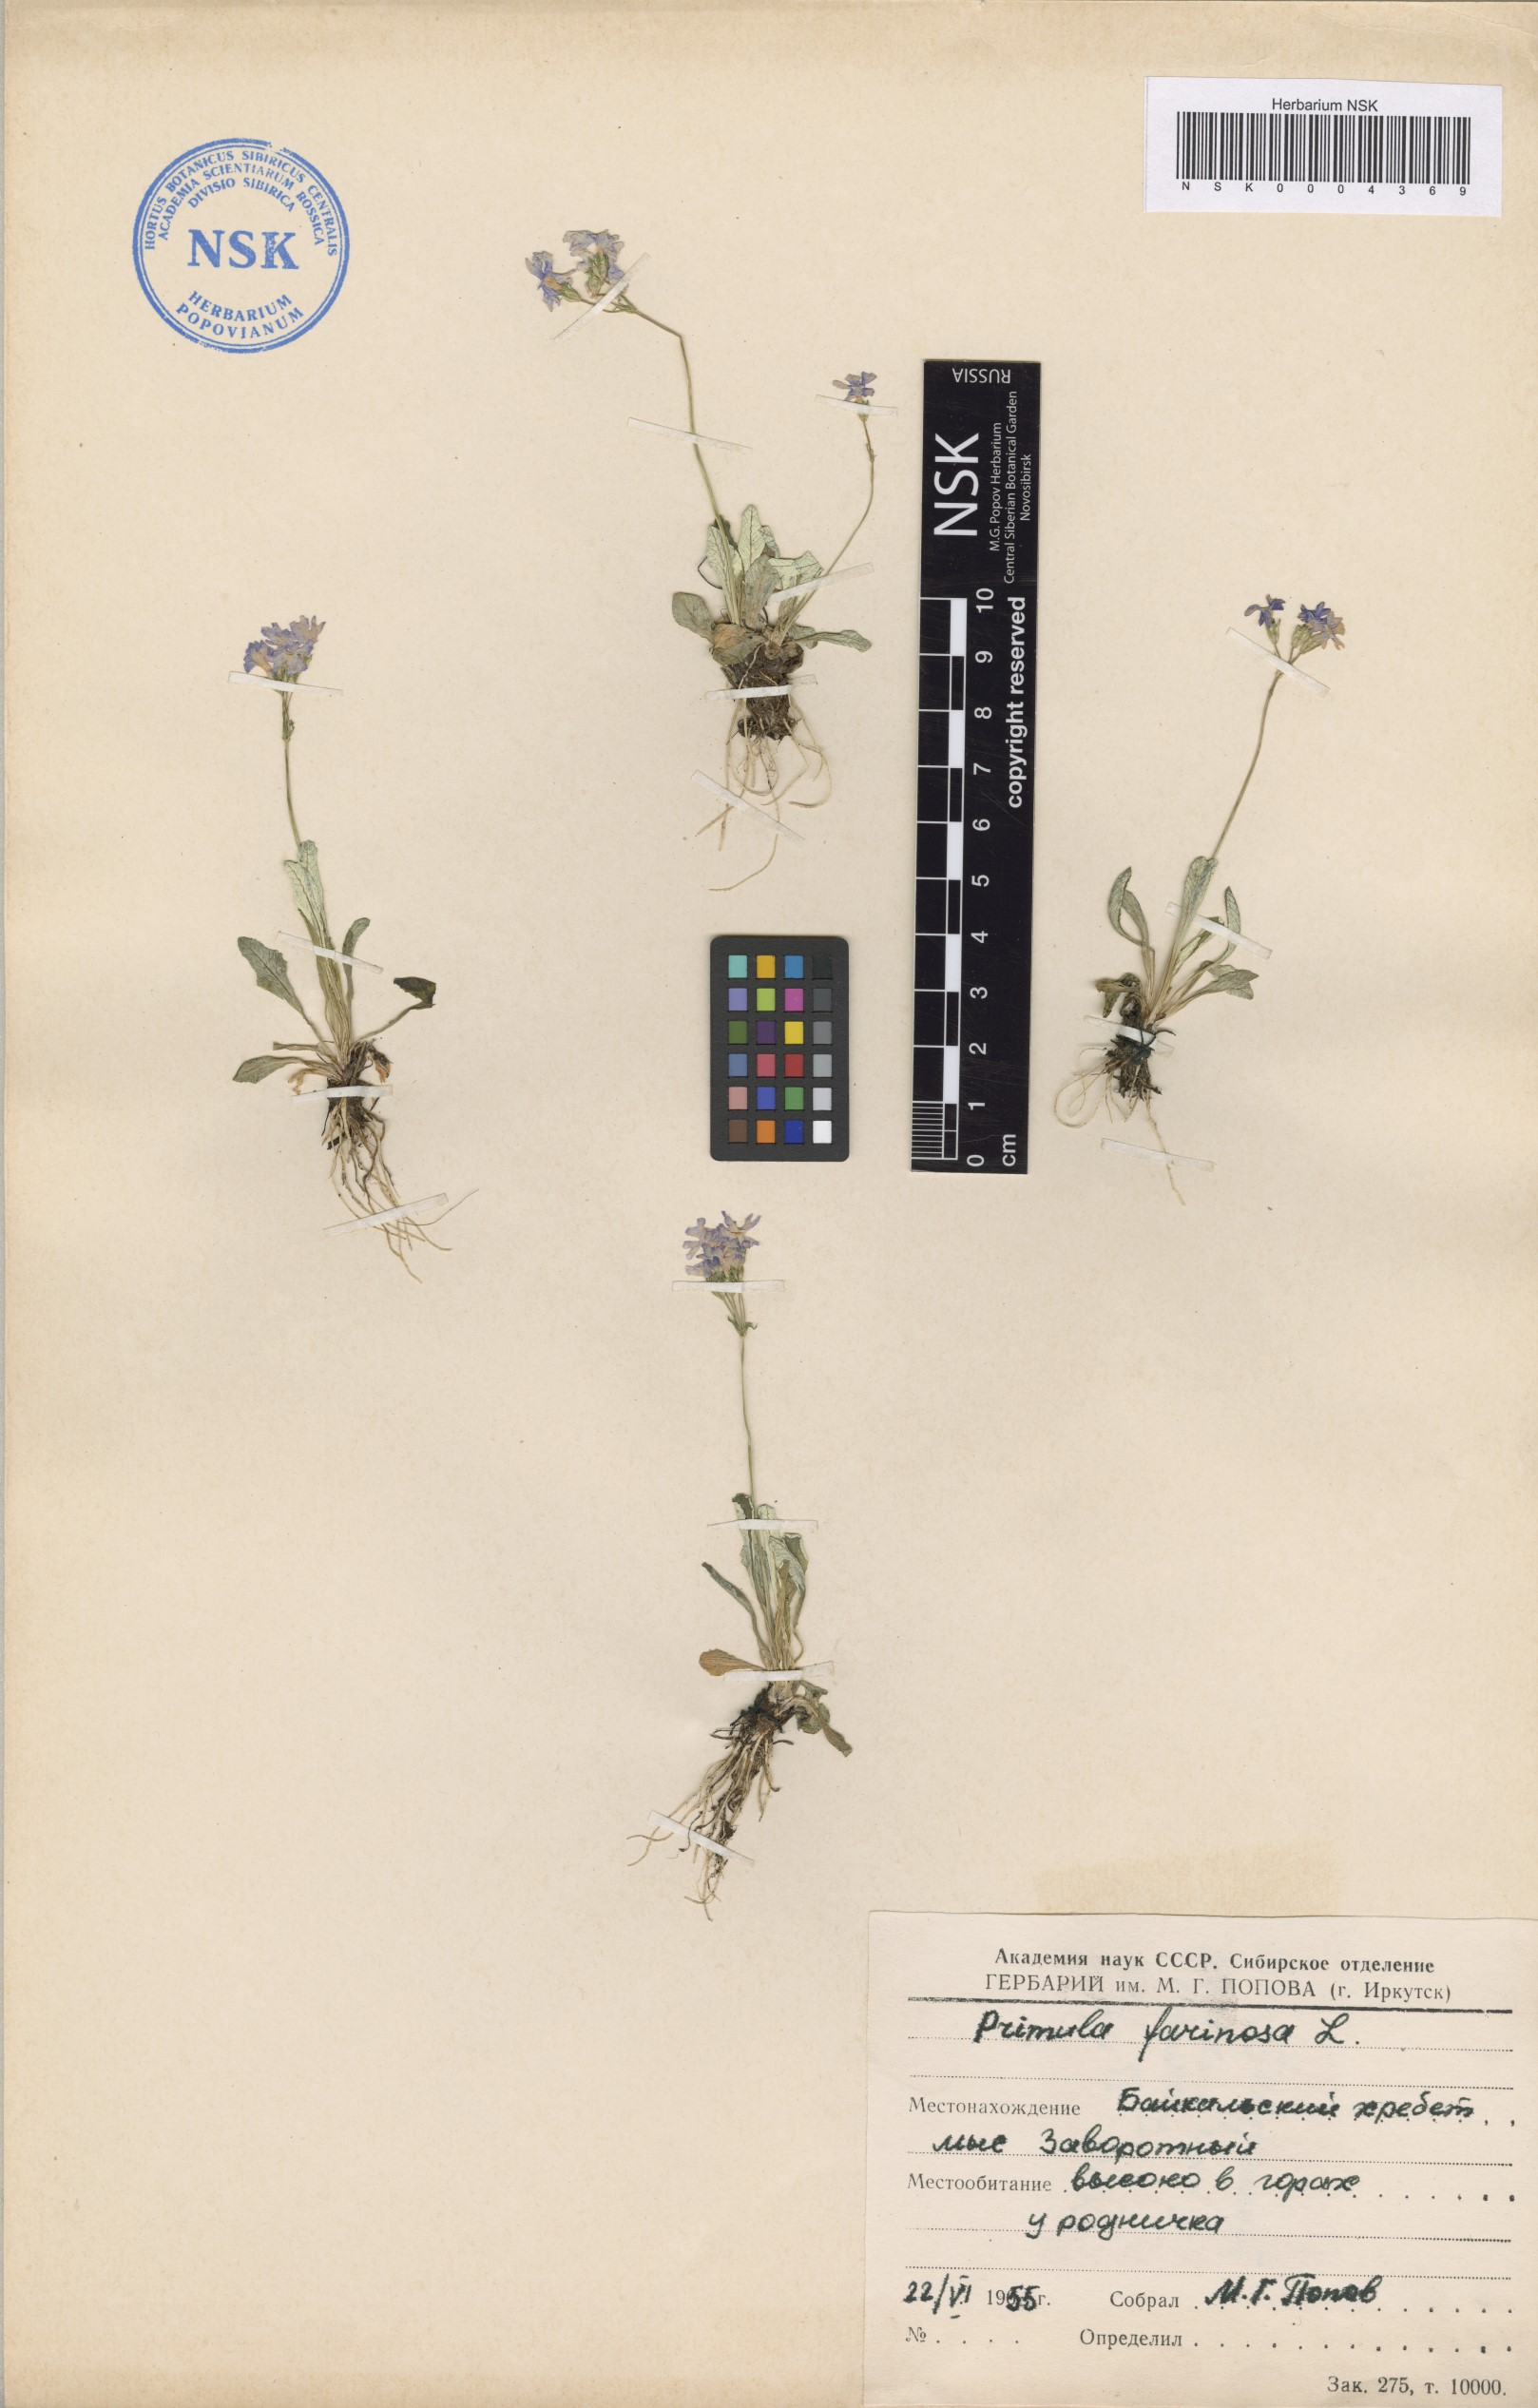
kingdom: Plantae
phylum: Tracheophyta
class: Magnoliopsida
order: Asterales
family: Asteraceae
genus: Taraxacum
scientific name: Taraxacum pseudonivale
